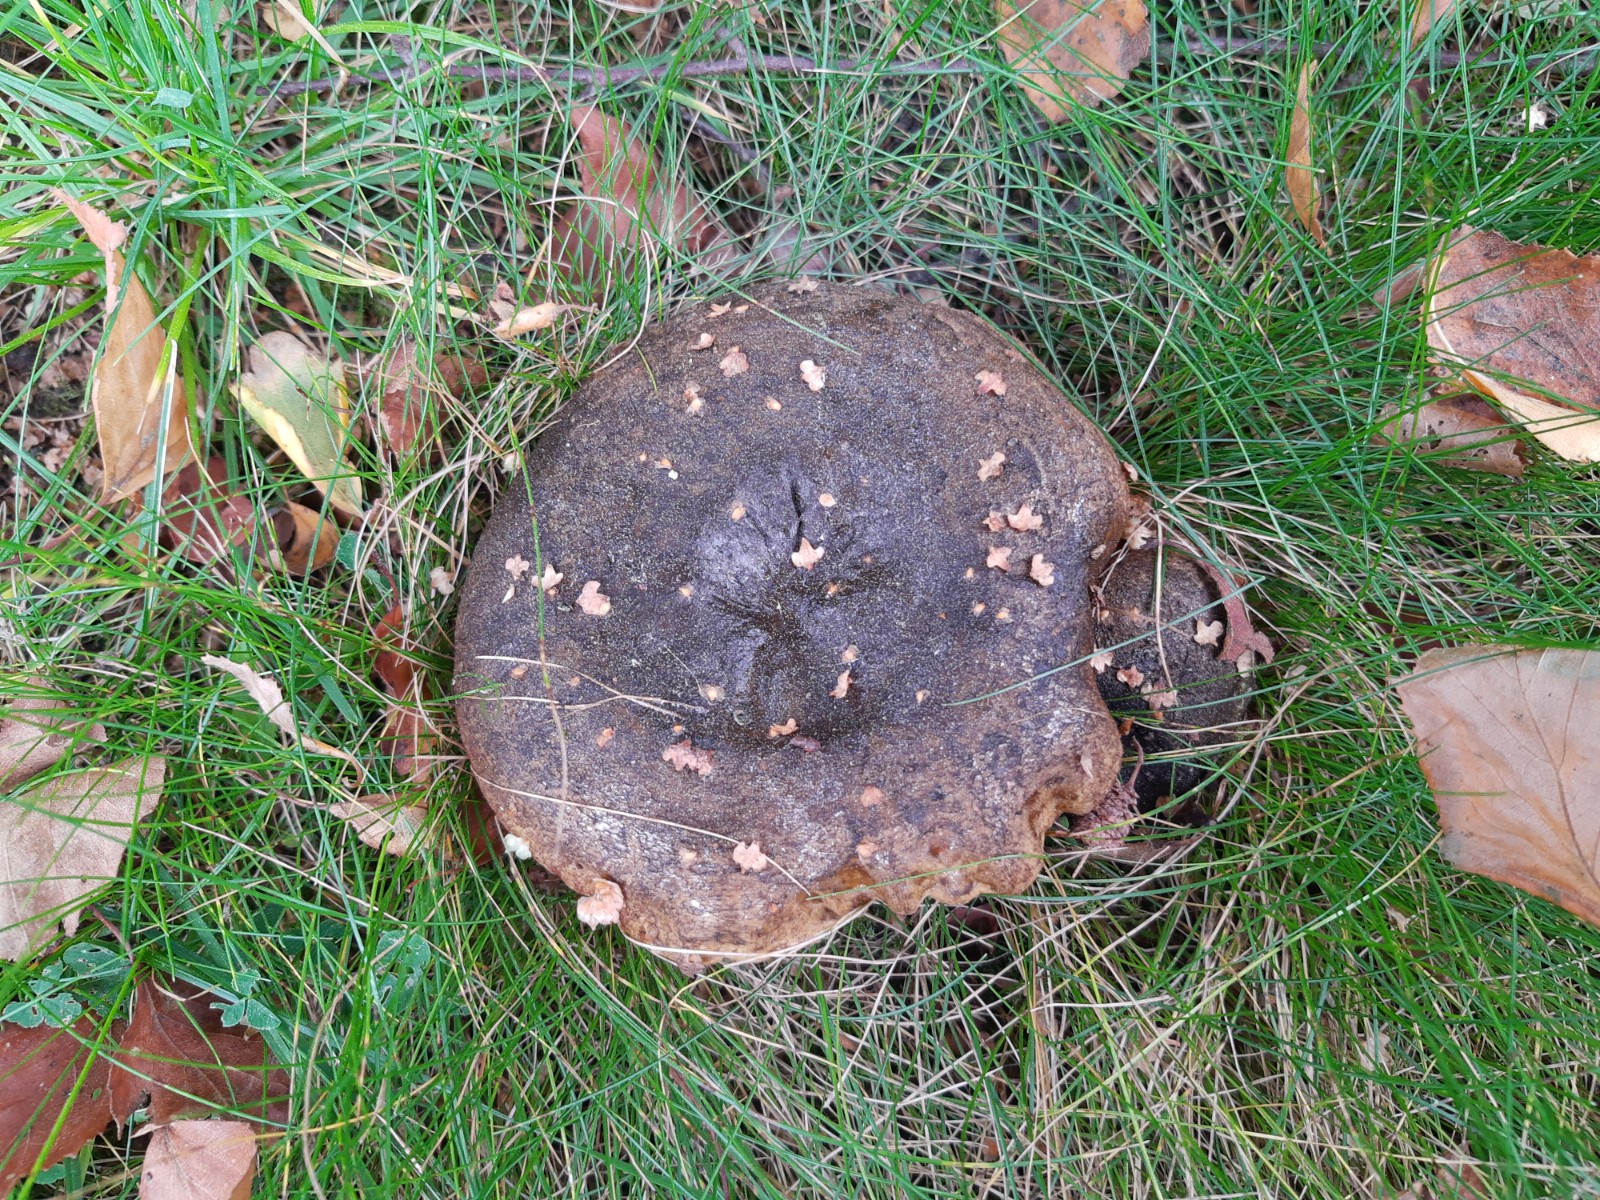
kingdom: Fungi
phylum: Basidiomycota
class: Agaricomycetes
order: Russulales
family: Russulaceae
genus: Lactarius
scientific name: Lactarius necator
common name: manddraber-mælkehat
